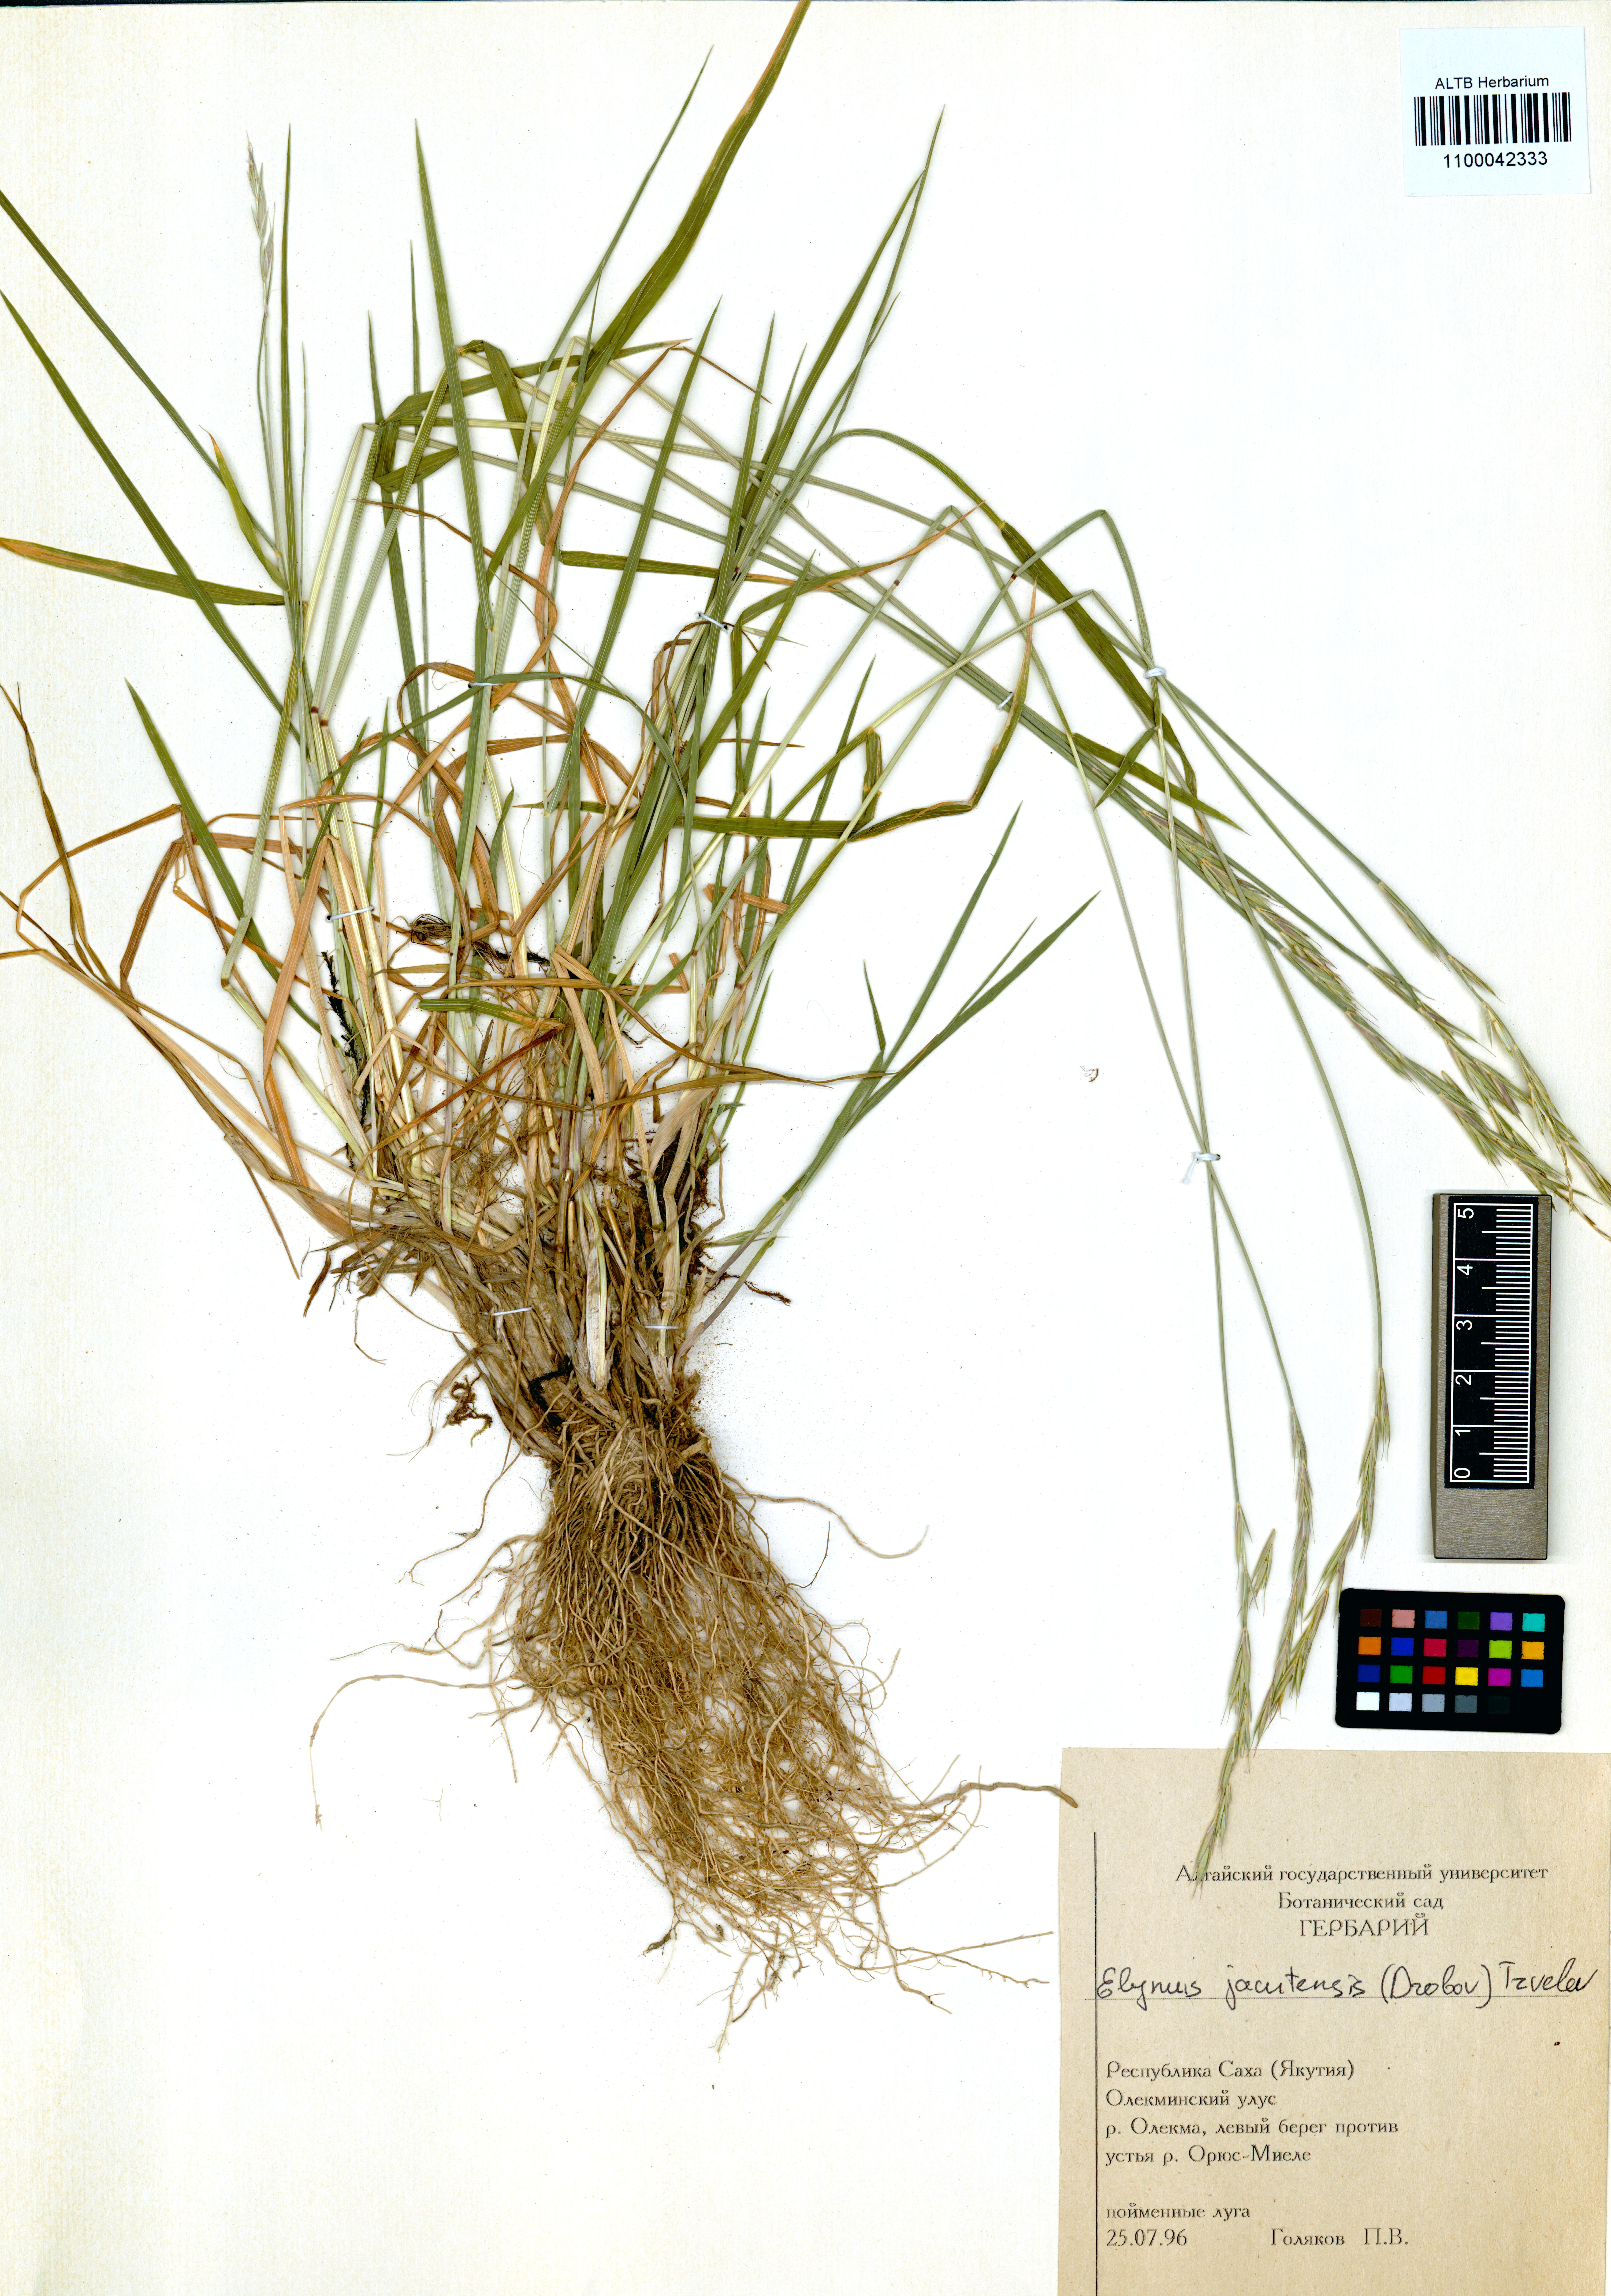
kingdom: Plantae
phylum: Tracheophyta
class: Liliopsida
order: Poales
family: Poaceae
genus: Elymus
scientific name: Elymus jacutensis
